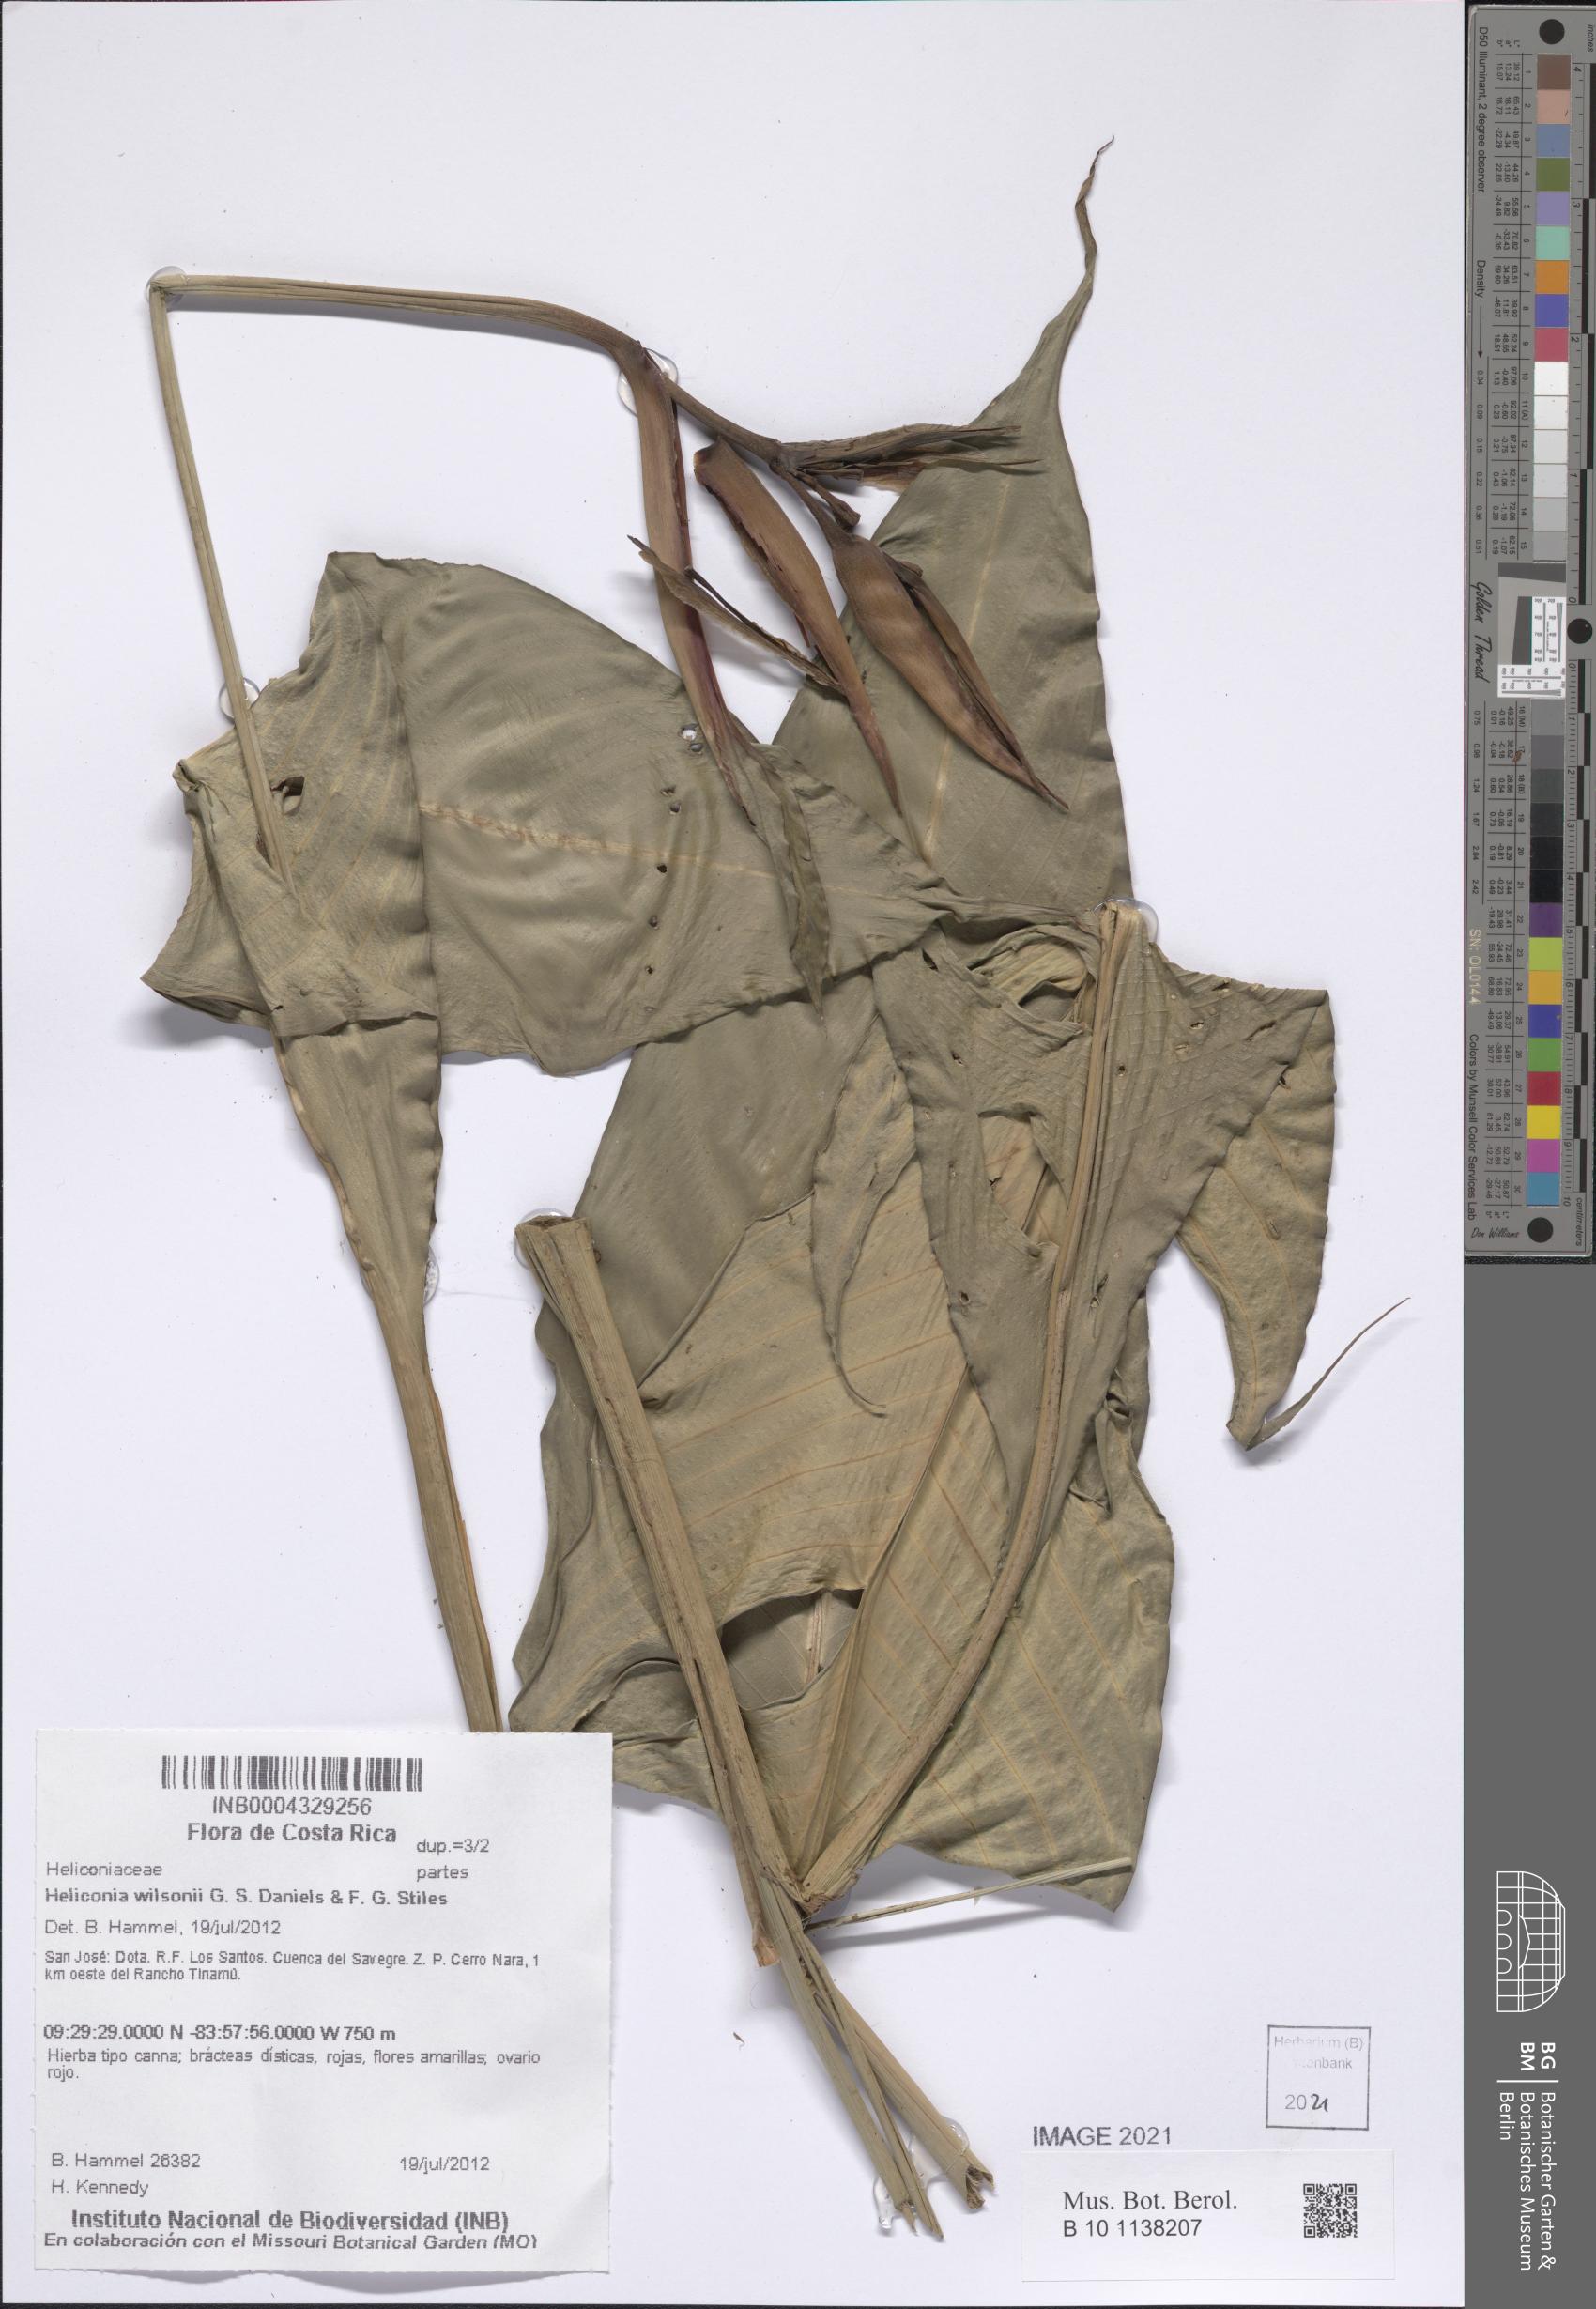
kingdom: Plantae
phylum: Tracheophyta
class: Liliopsida
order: Zingiberales
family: Heliconiaceae
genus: Heliconia
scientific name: Heliconia wilsonii
